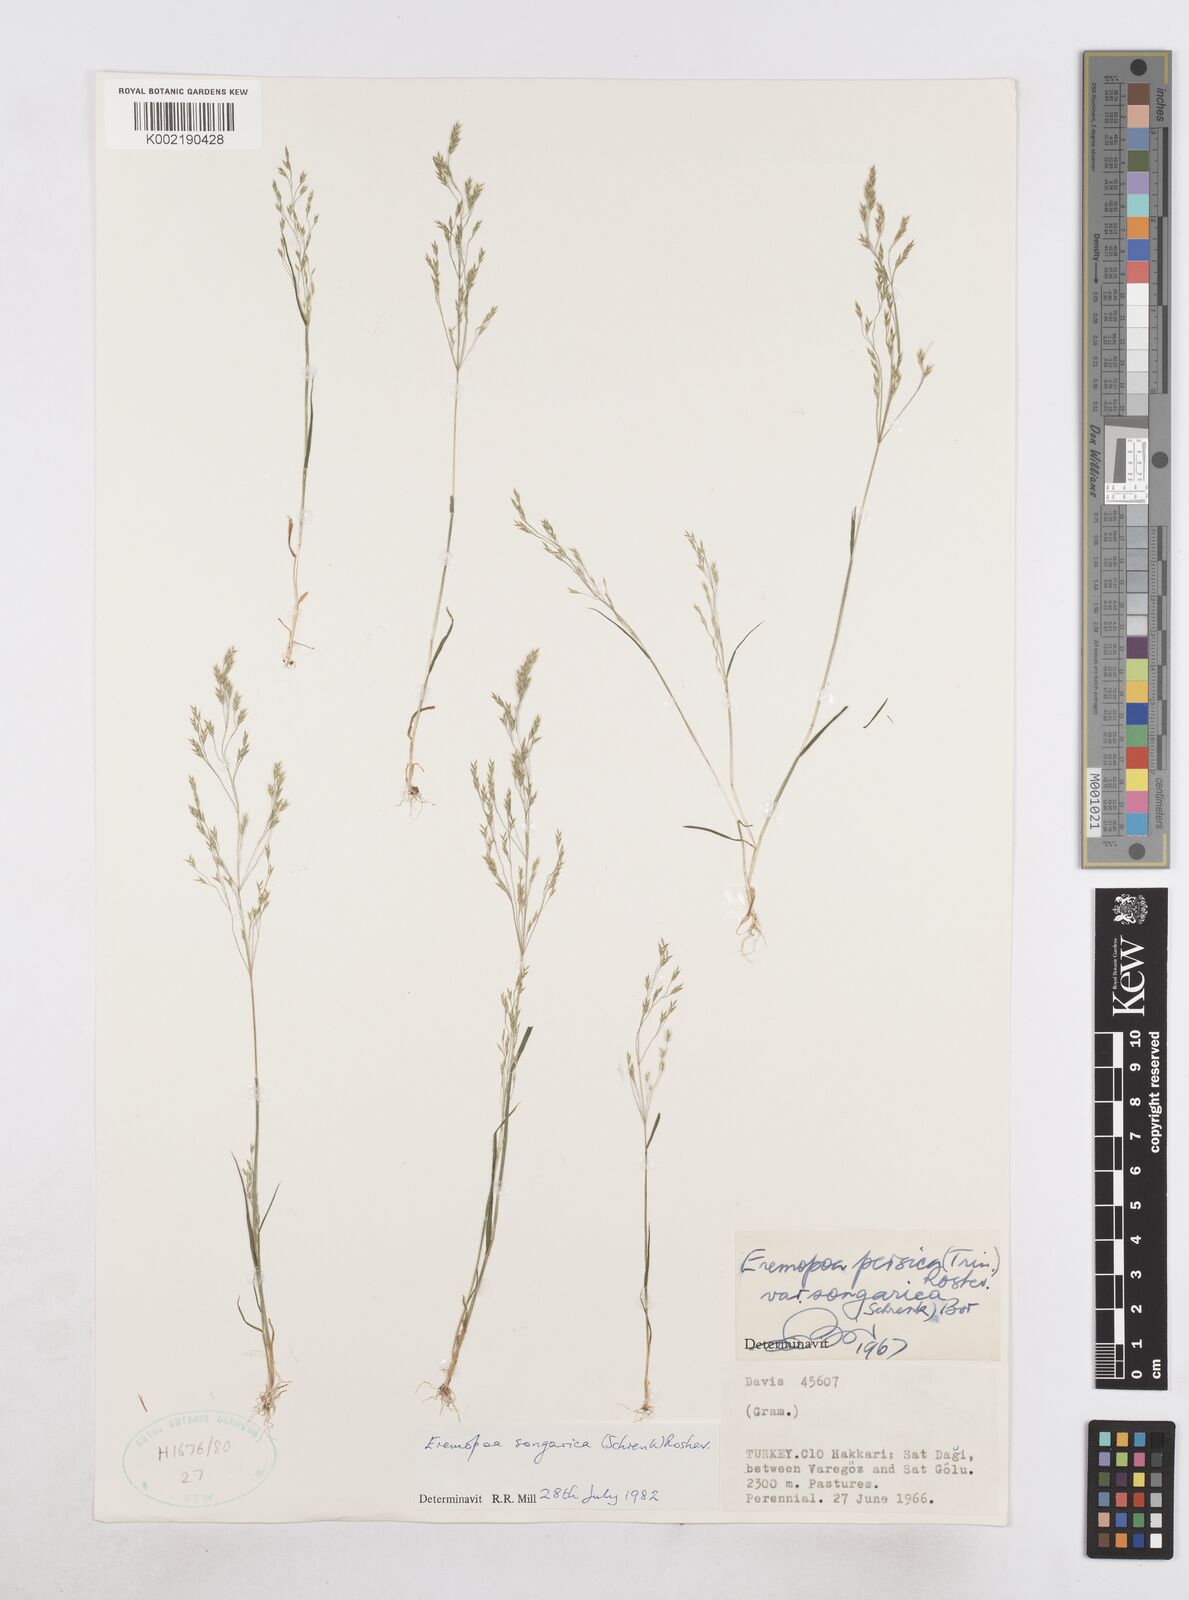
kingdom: Plantae
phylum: Tracheophyta
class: Liliopsida
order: Poales
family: Poaceae
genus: Poa
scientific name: Poa diaphora
